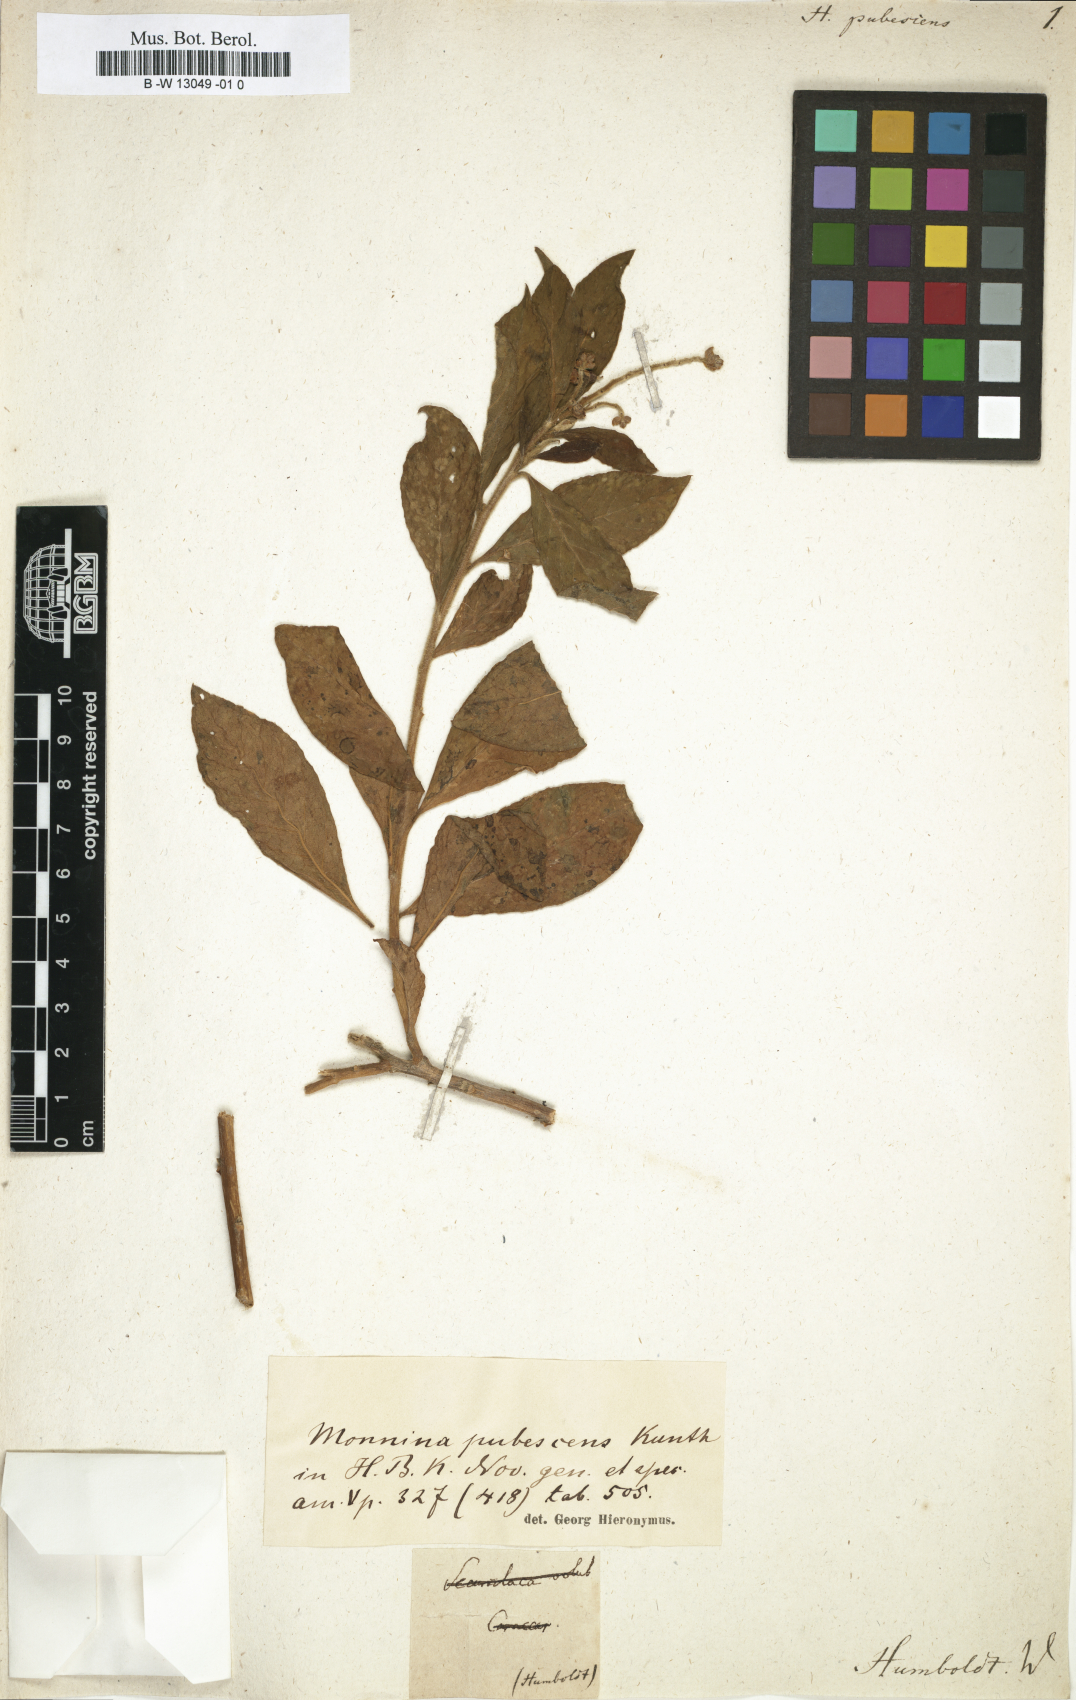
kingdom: Plantae
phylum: Tracheophyta
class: Magnoliopsida
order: Fabales
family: Polygalaceae
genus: Monnina
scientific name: Monnina pubescens
